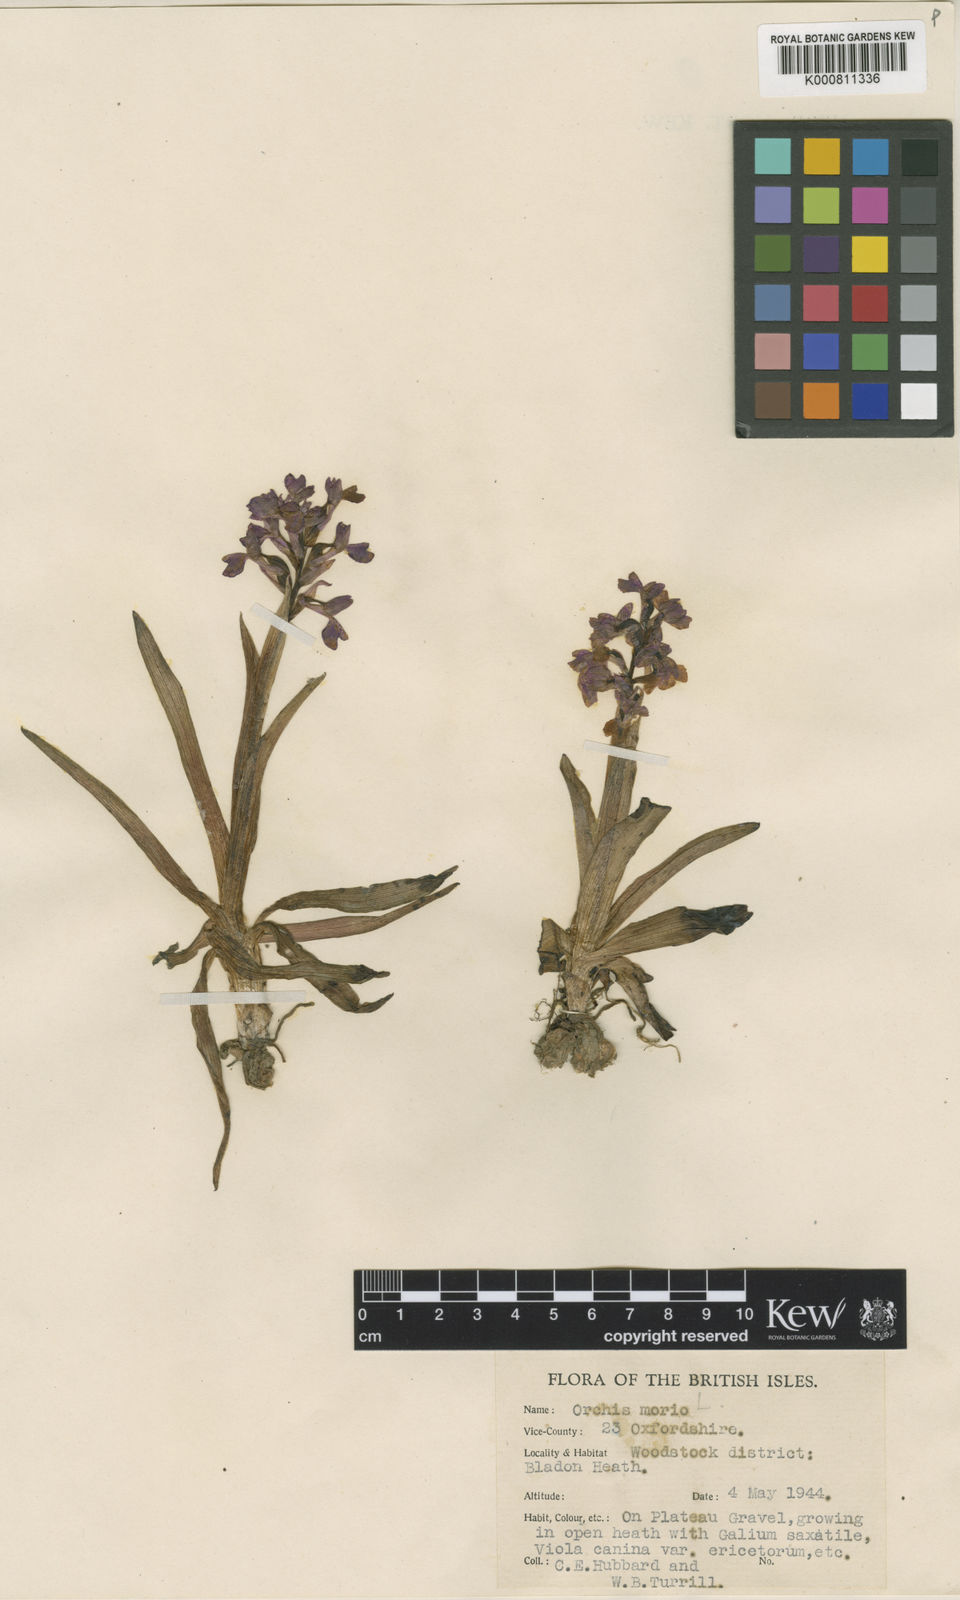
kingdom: Plantae
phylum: Tracheophyta
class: Liliopsida
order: Asparagales
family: Orchidaceae
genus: Anacamptis
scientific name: Anacamptis morio
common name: Green-winged orchid
